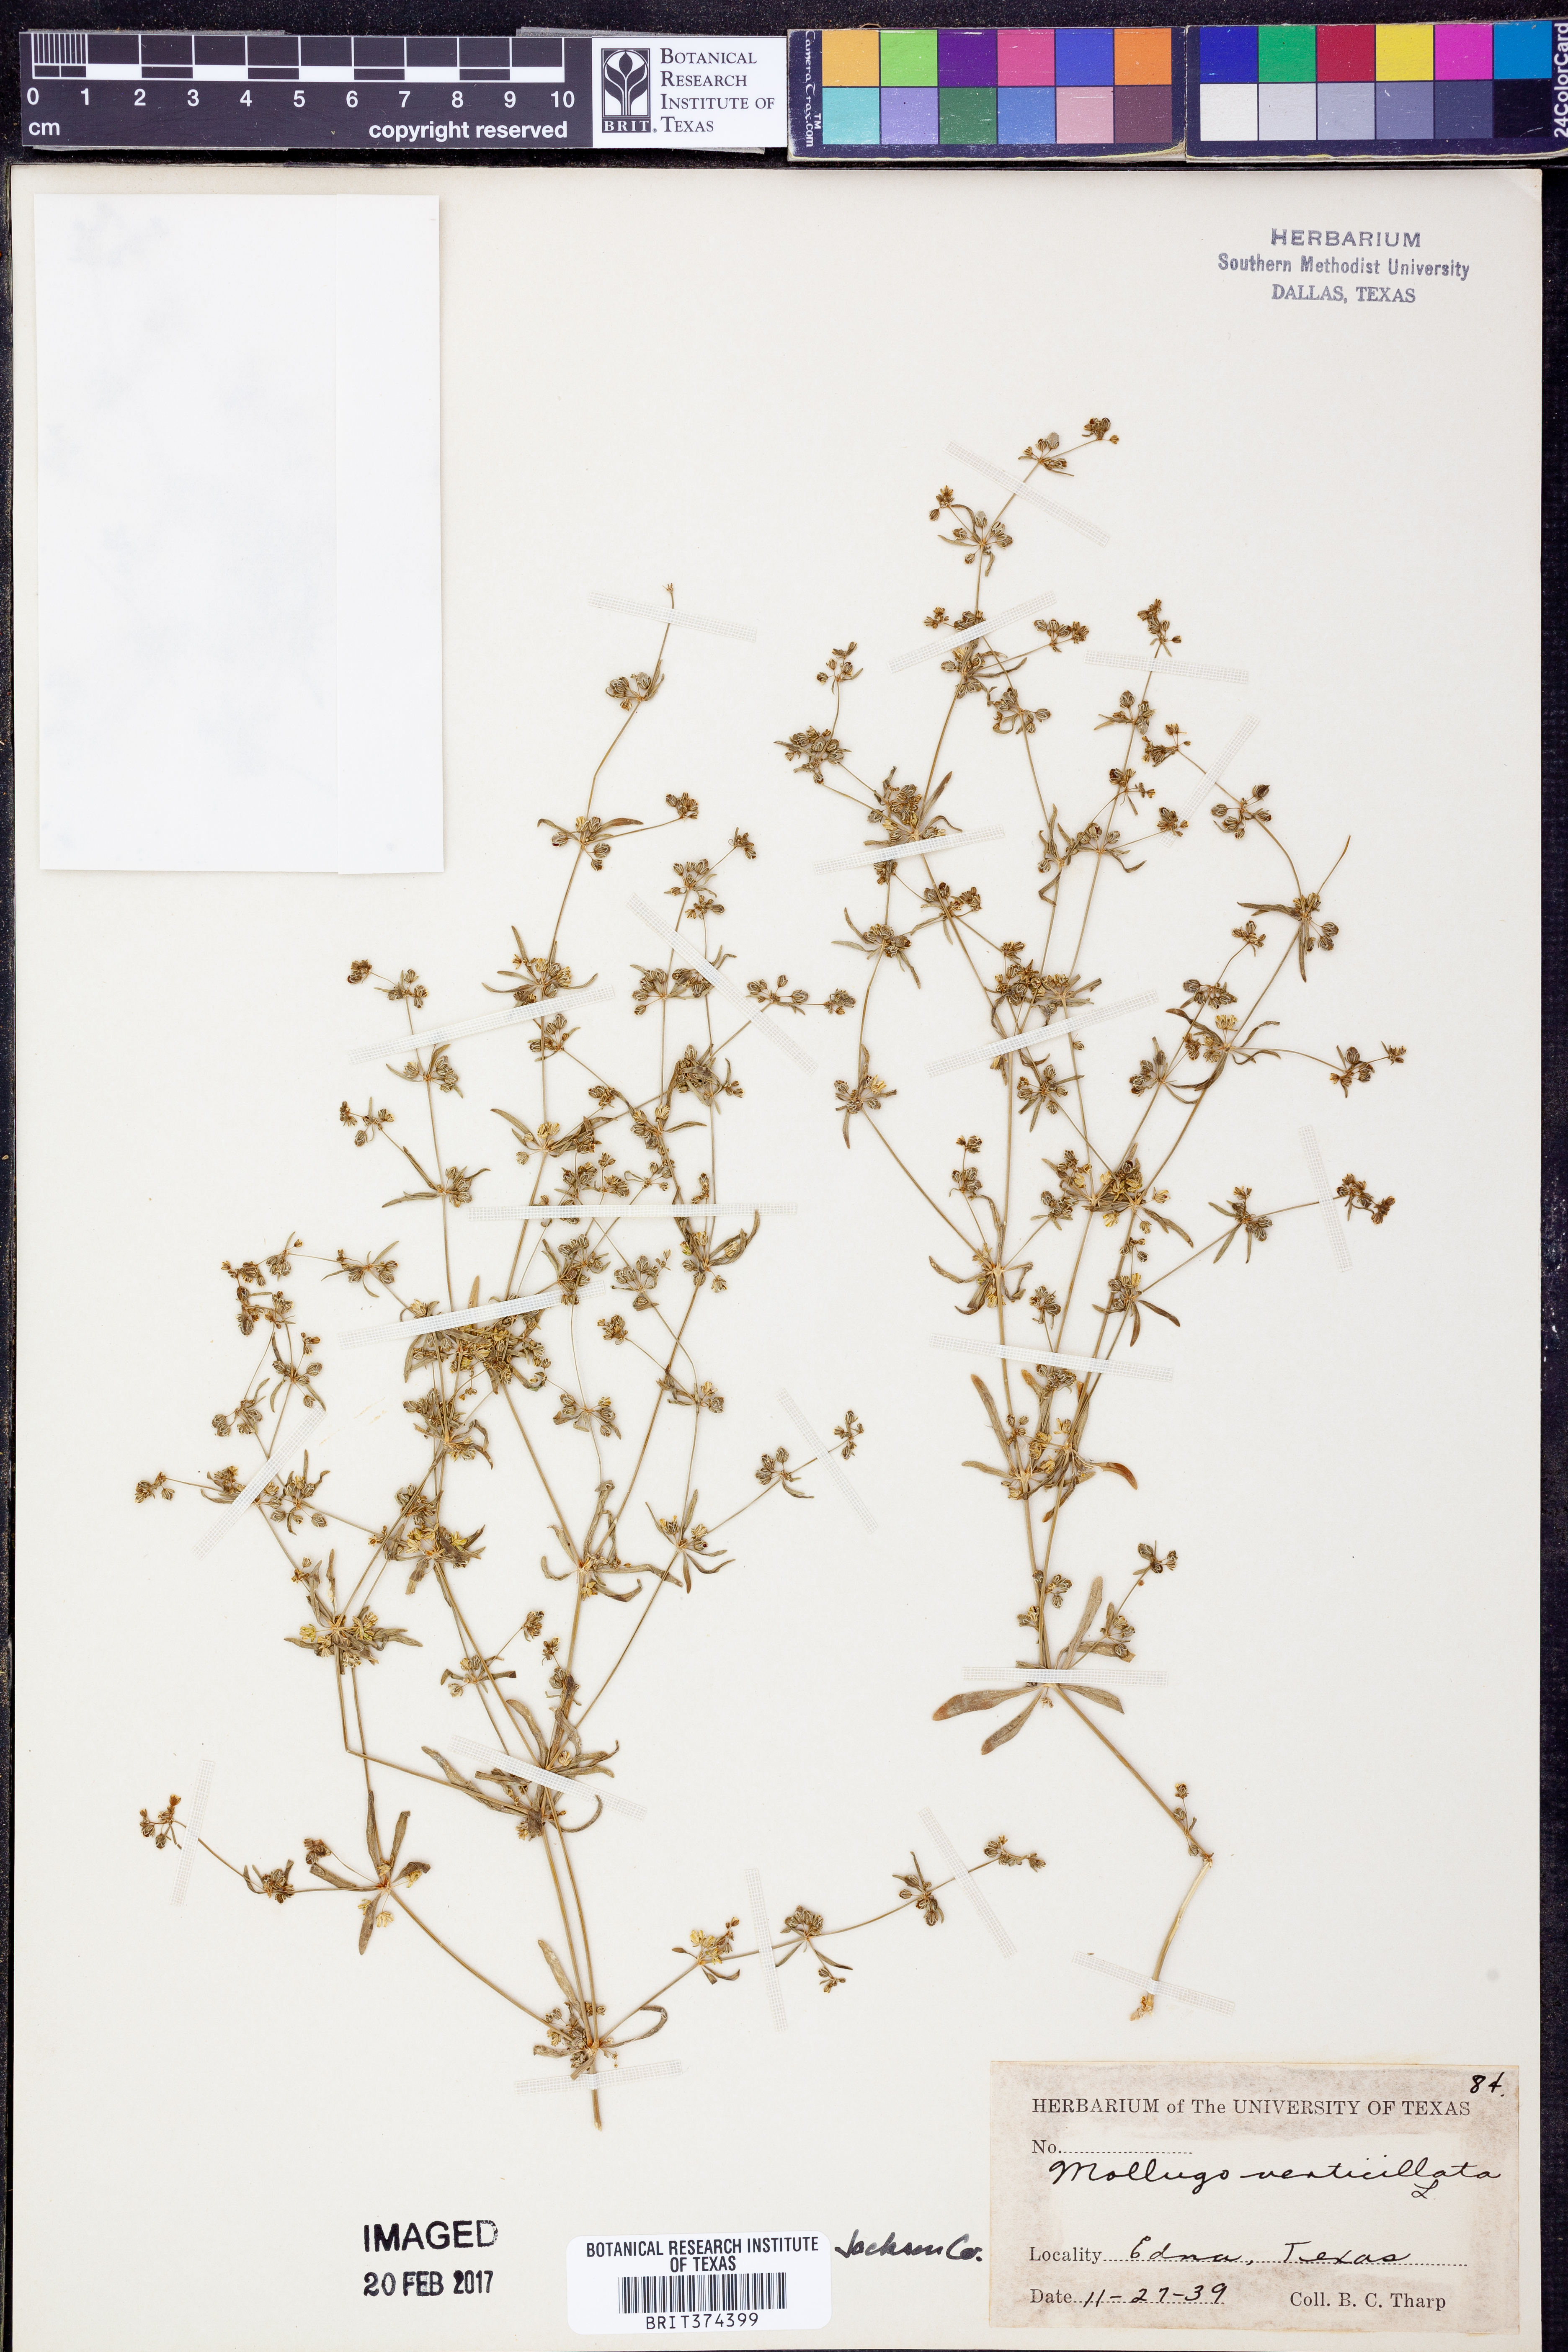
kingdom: Plantae
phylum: Tracheophyta
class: Magnoliopsida
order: Caryophyllales
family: Molluginaceae
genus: Mollugo
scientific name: Mollugo verticillata
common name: Green carpetweed
